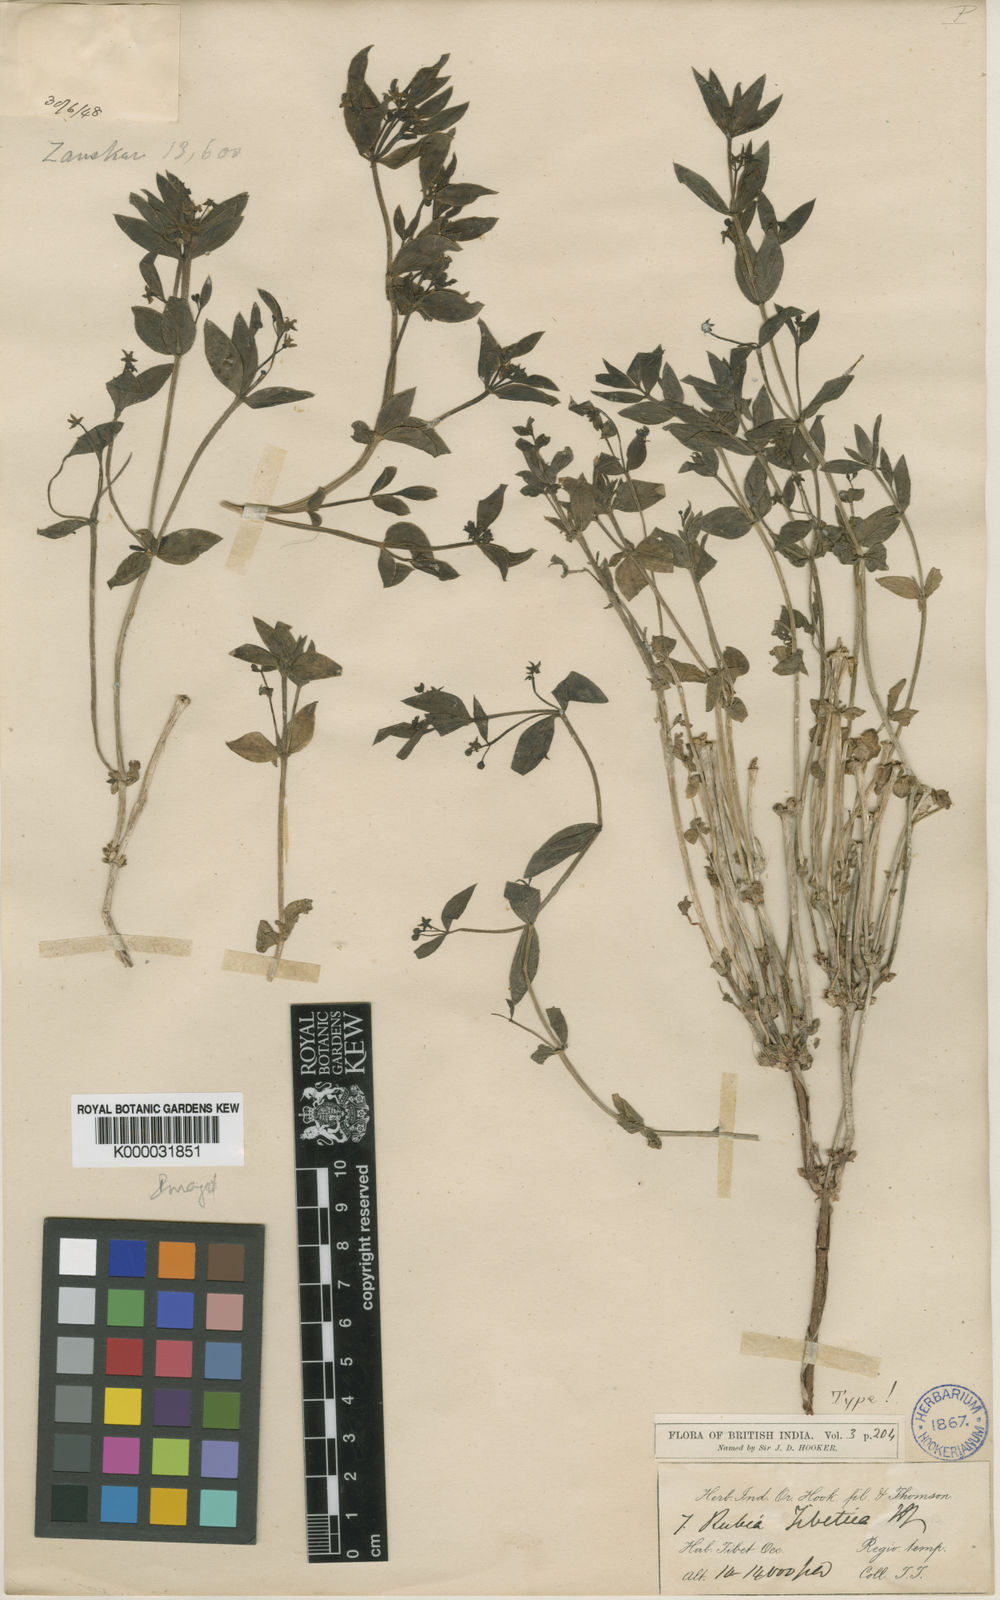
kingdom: Plantae
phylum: Tracheophyta
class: Magnoliopsida
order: Gentianales
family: Rubiaceae
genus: Rubia
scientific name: Rubia tibetica
